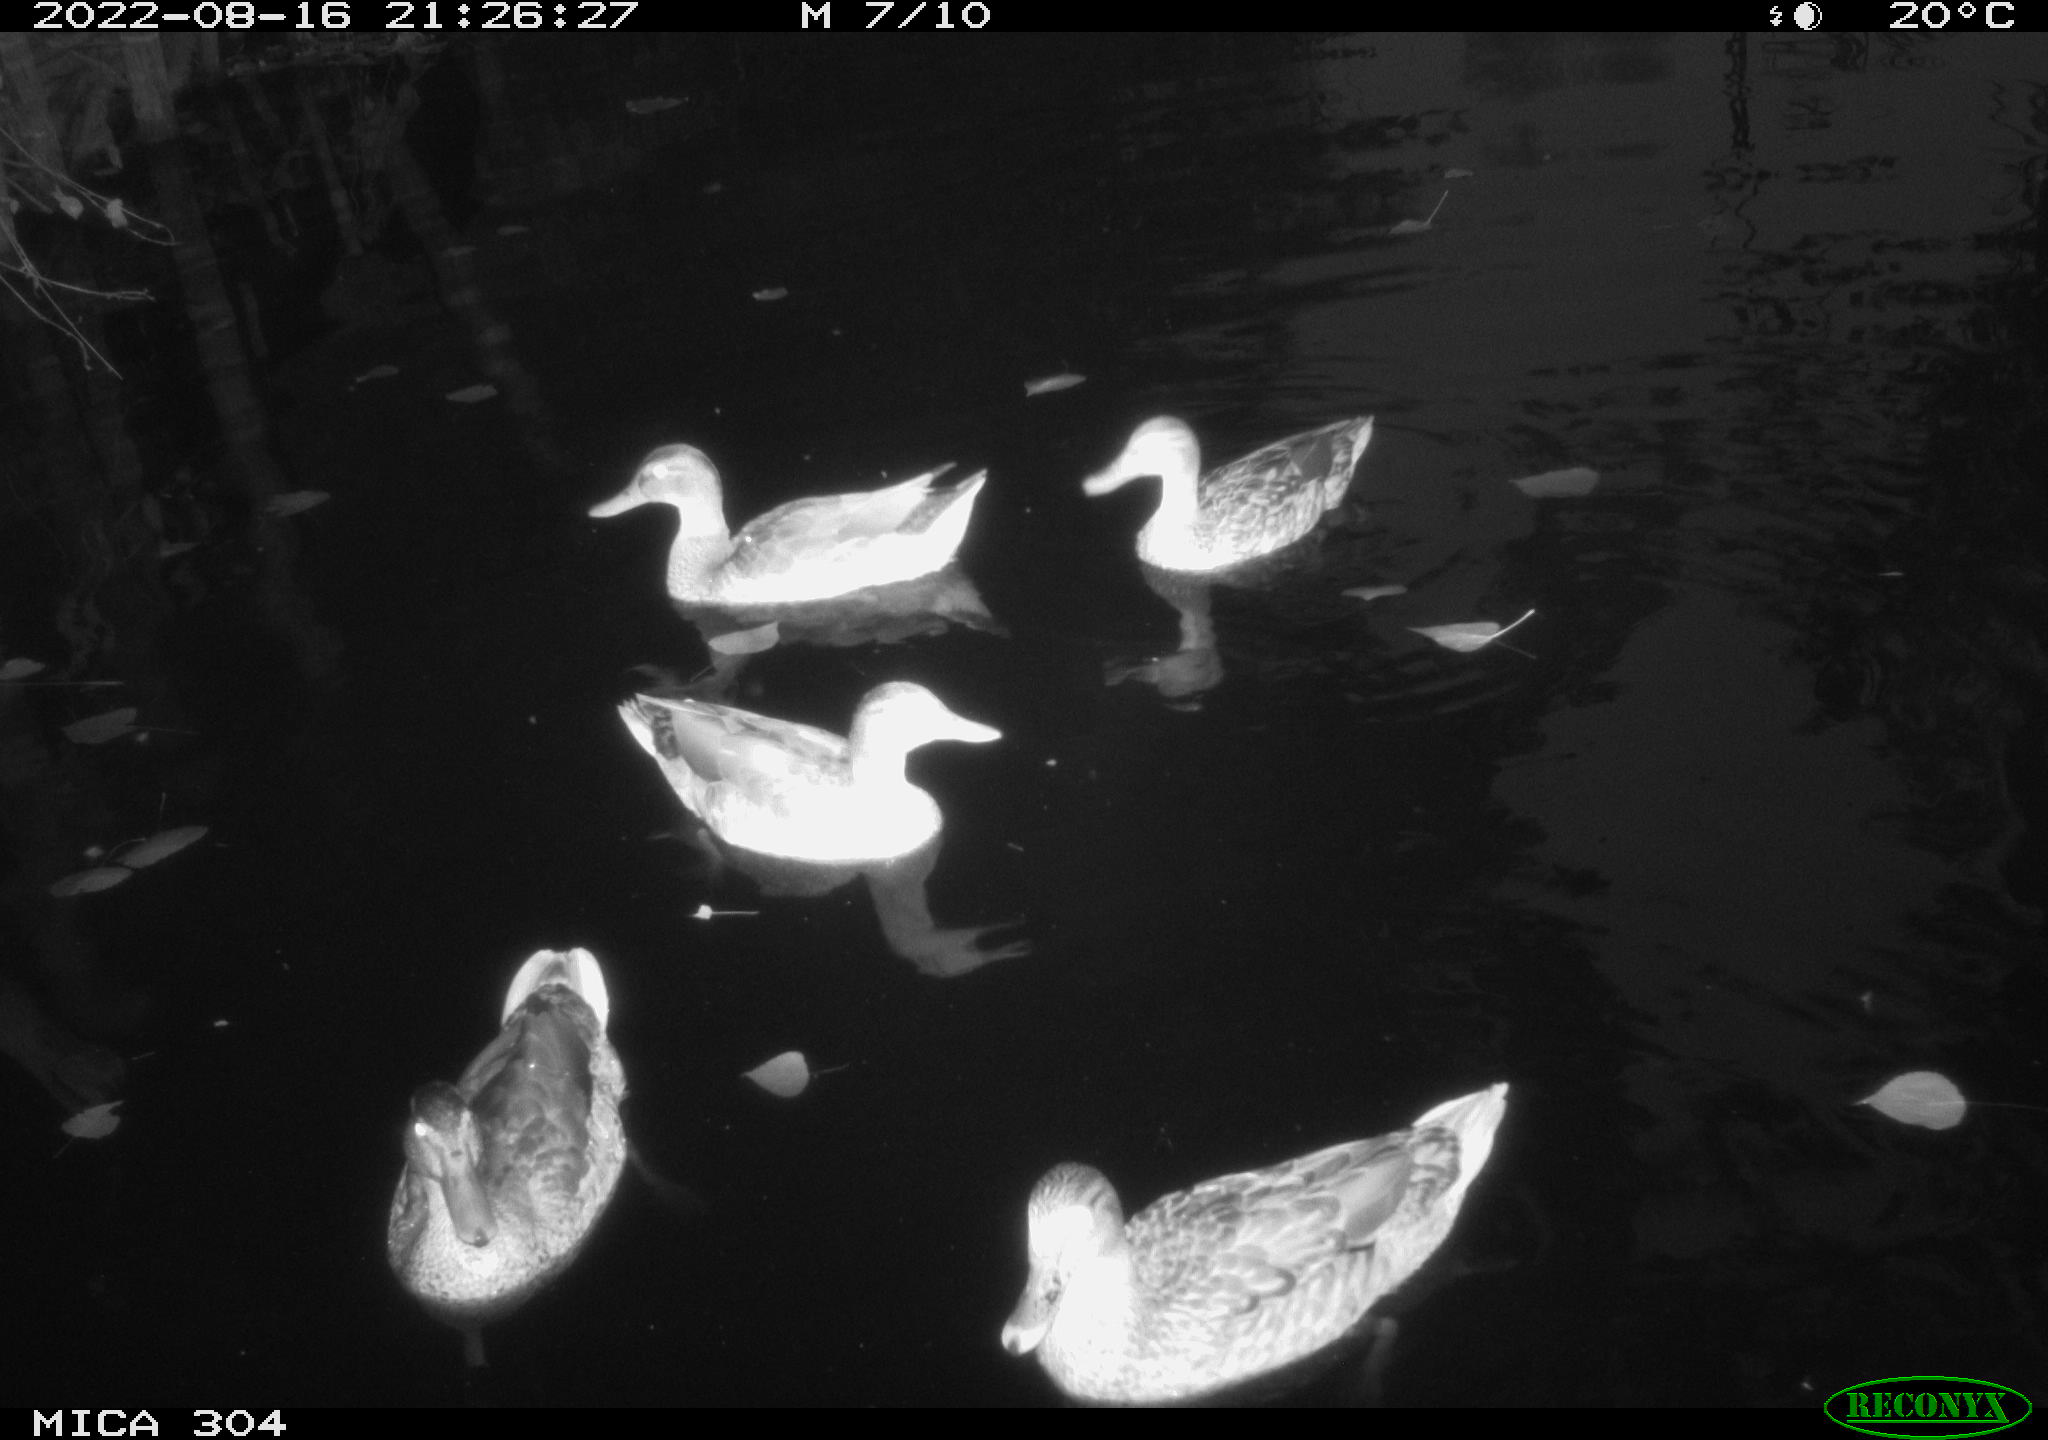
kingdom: Animalia
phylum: Chordata
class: Aves
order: Anseriformes
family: Anatidae
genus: Anas
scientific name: Anas platyrhynchos
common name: Mallard
